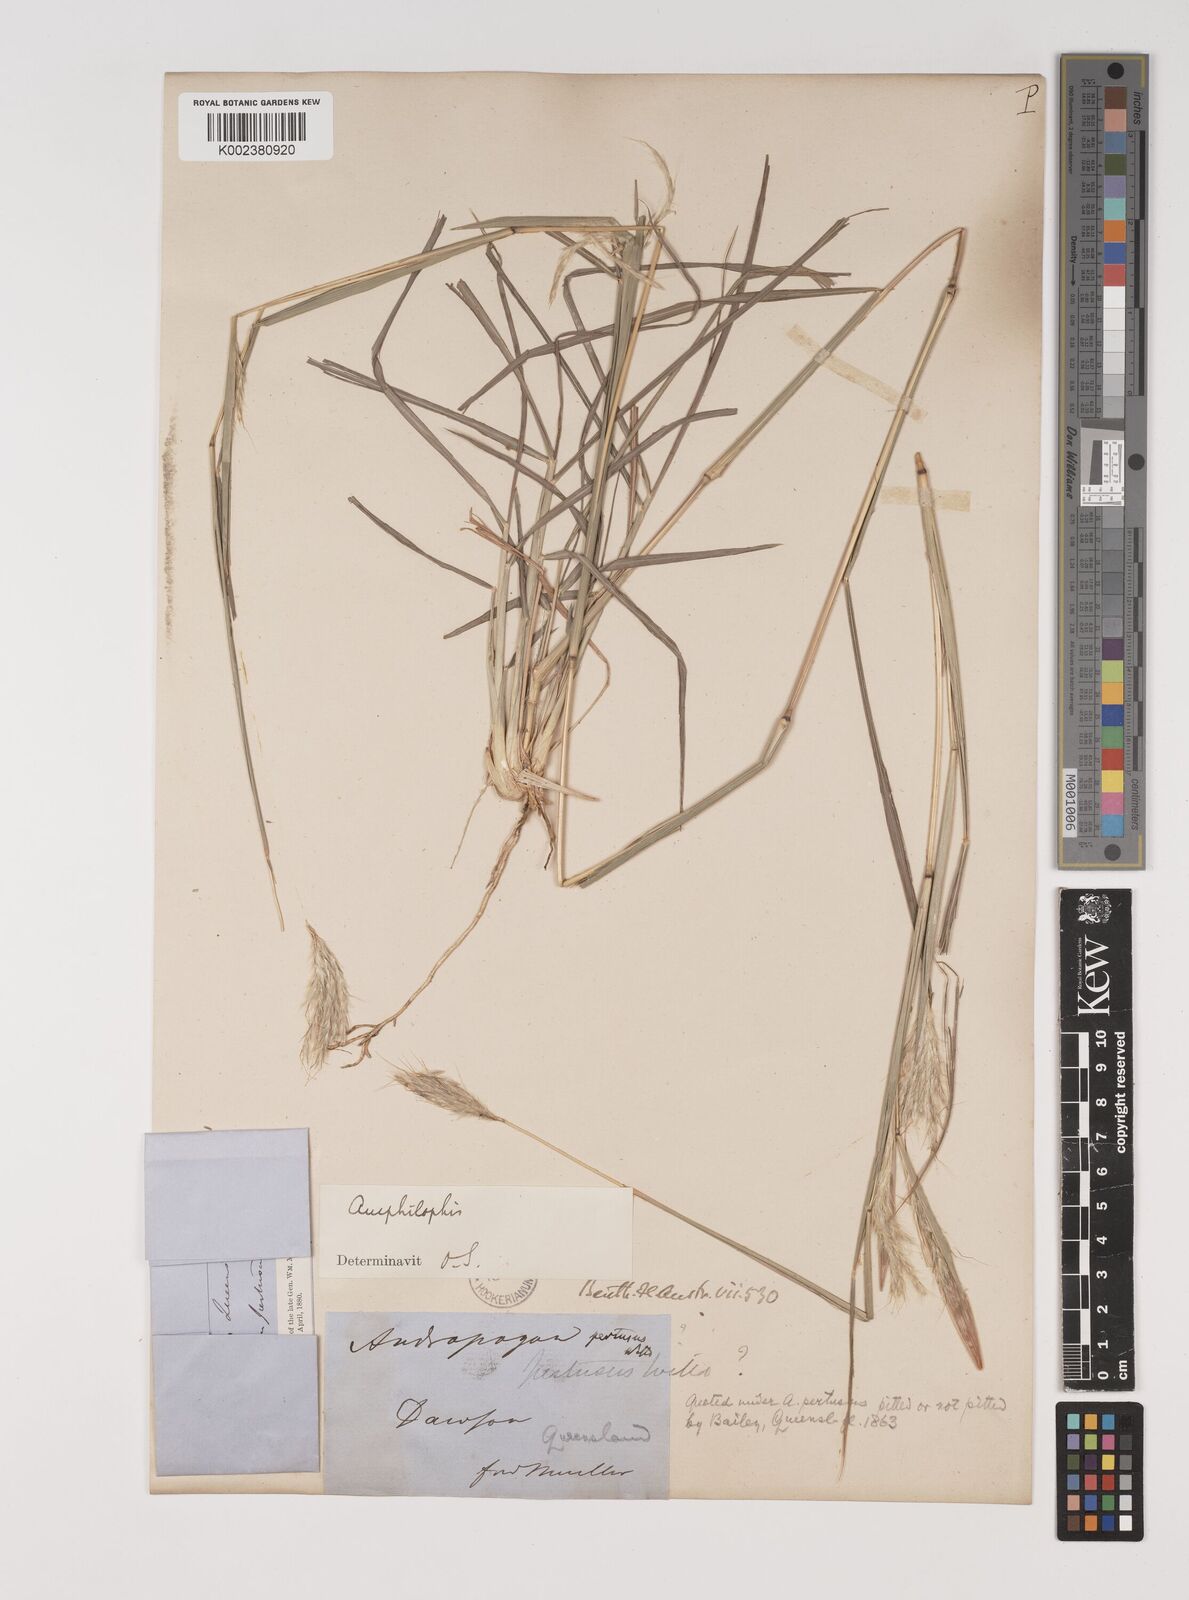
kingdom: Plantae
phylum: Tracheophyta
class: Liliopsida
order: Poales
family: Poaceae
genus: Bothriochloa
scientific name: Bothriochloa decipiens
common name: Pitted-bluegrass
